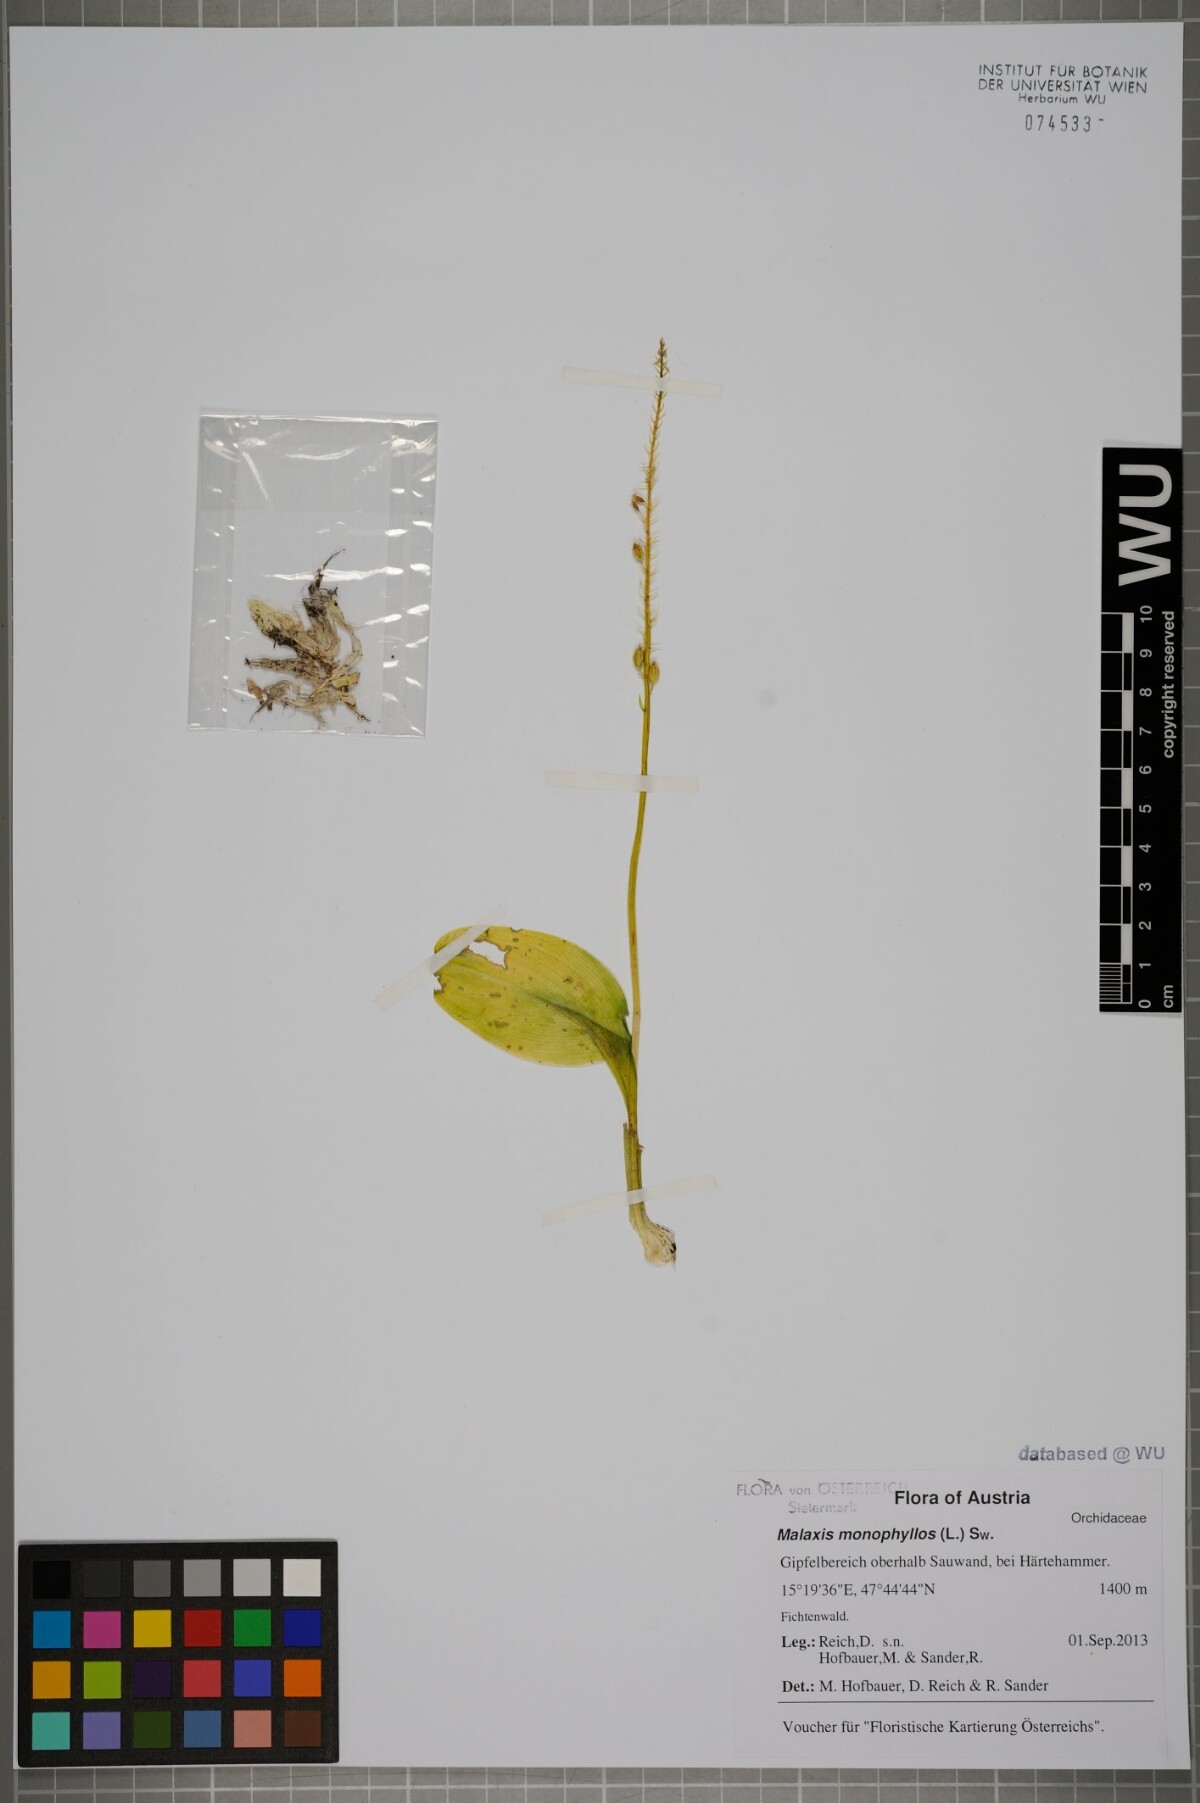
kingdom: Plantae
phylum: Tracheophyta
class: Liliopsida
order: Asparagales
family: Orchidaceae
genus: Malaxis
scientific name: Malaxis monophyllos
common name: White adder's-mouth
